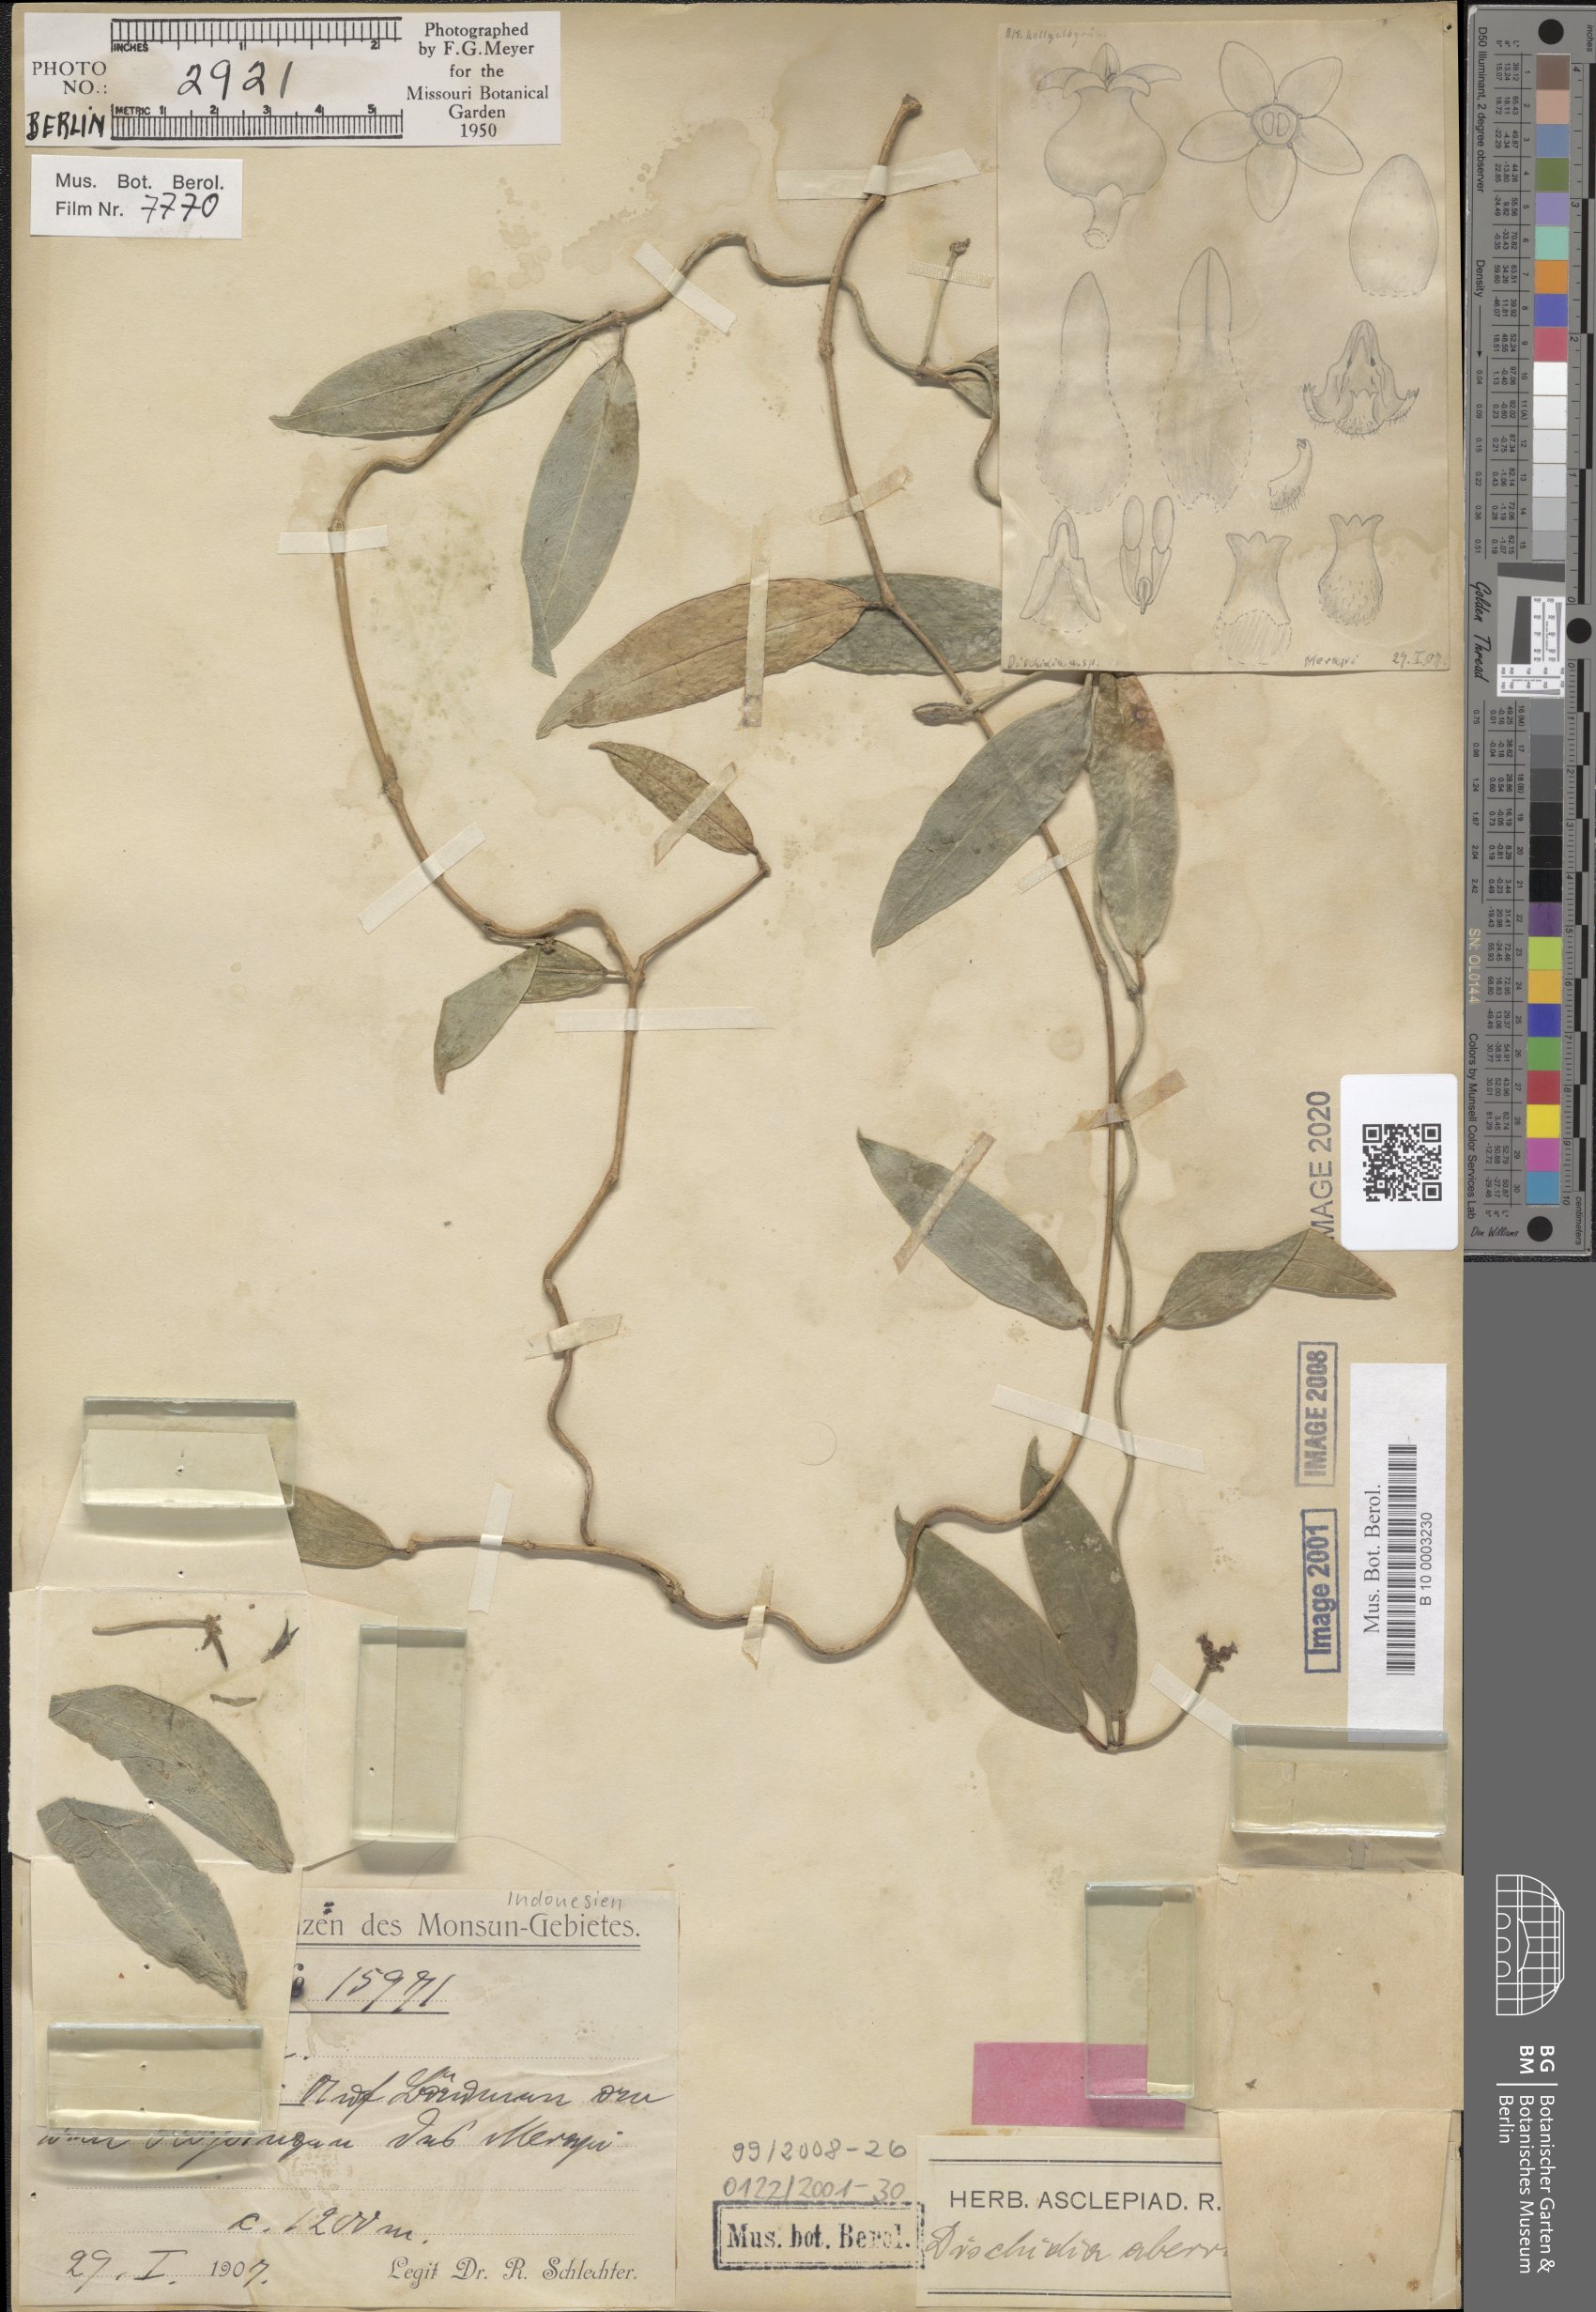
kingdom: Plantae
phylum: Tracheophyta
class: Magnoliopsida
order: Gentianales
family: Apocynaceae
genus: Dischidia
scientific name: Dischidia aberrans
